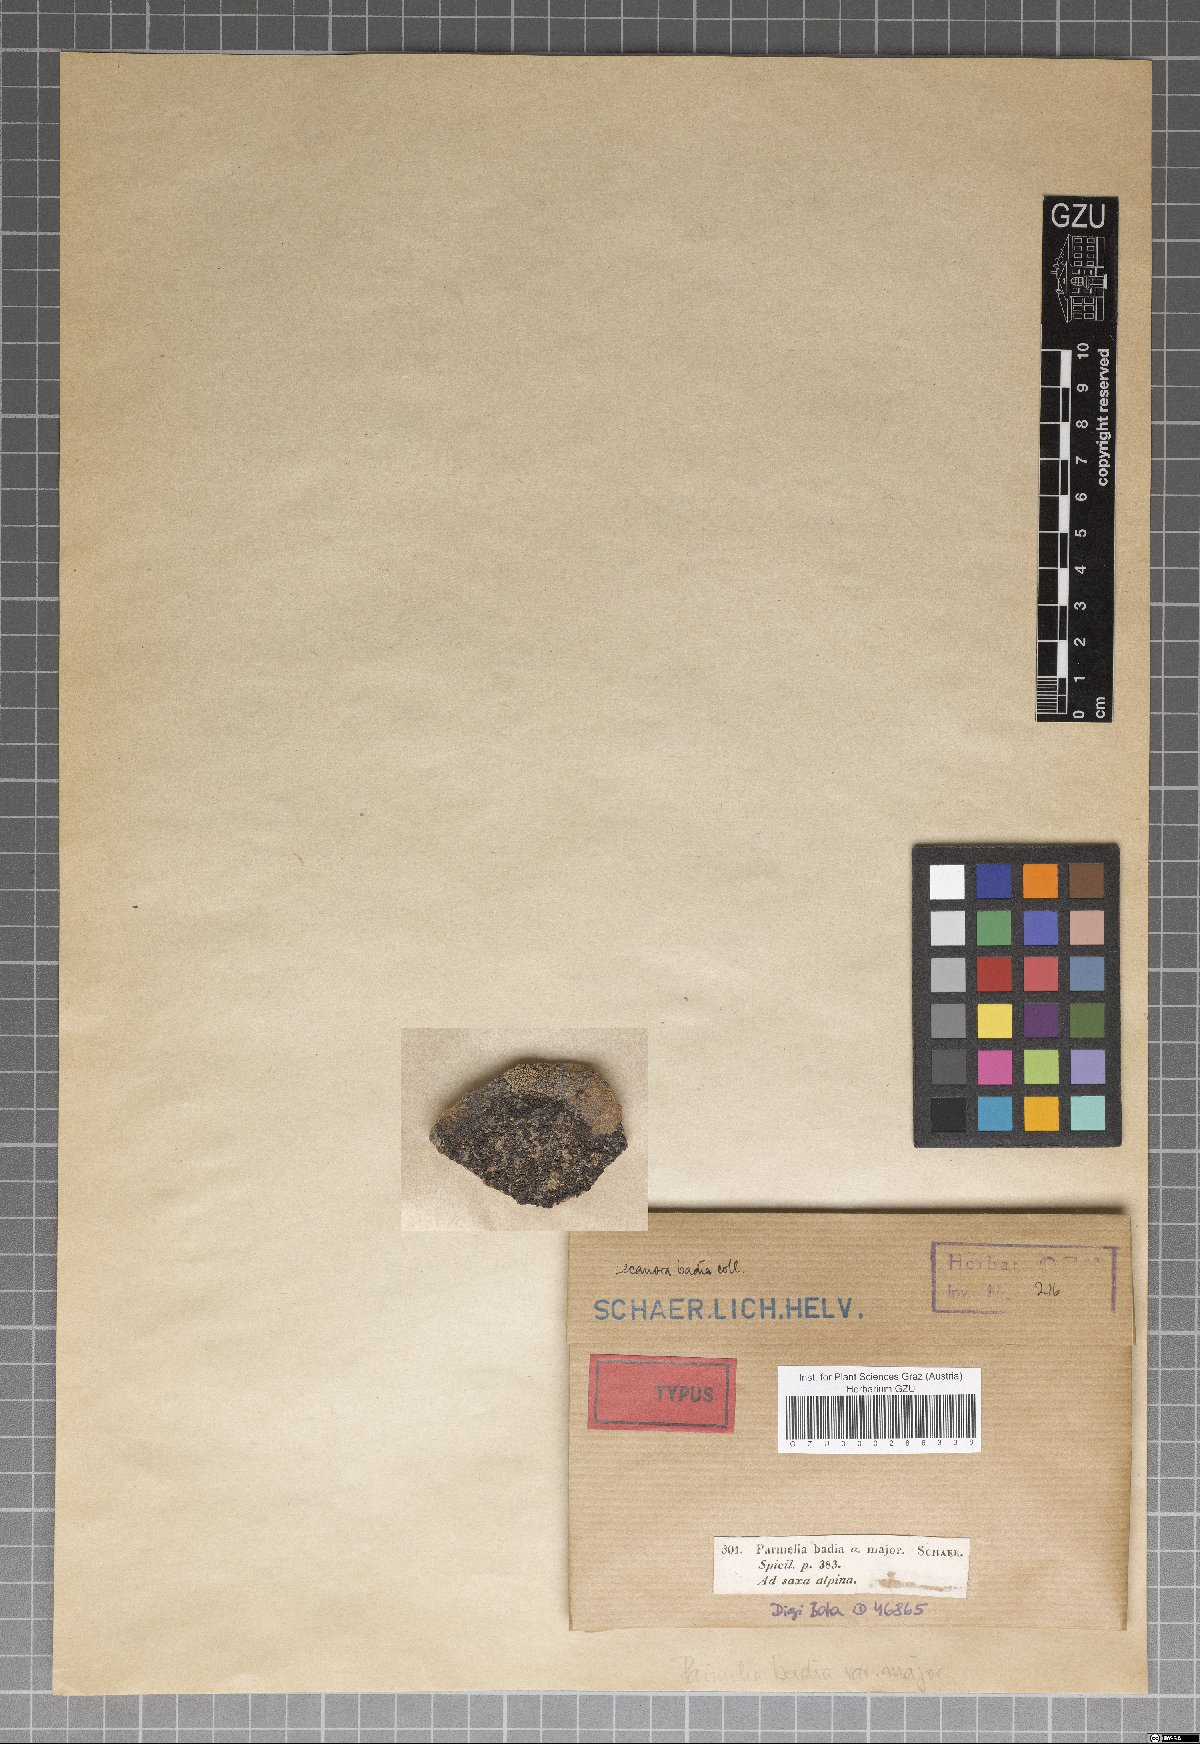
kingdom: Fungi
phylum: Ascomycota
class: Lecanoromycetes
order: Lecanorales
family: Parmeliaceae
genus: Parmelinella
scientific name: Parmelinella
